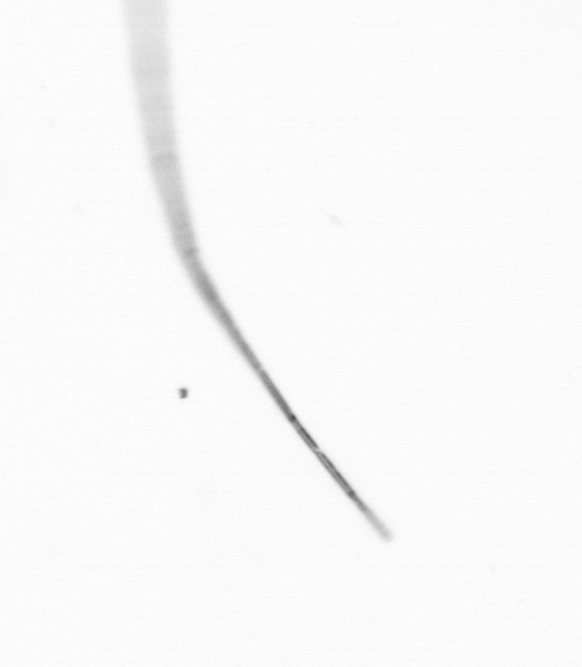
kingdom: Chromista
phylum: Ochrophyta
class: Bacillariophyceae
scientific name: Bacillariophyceae
